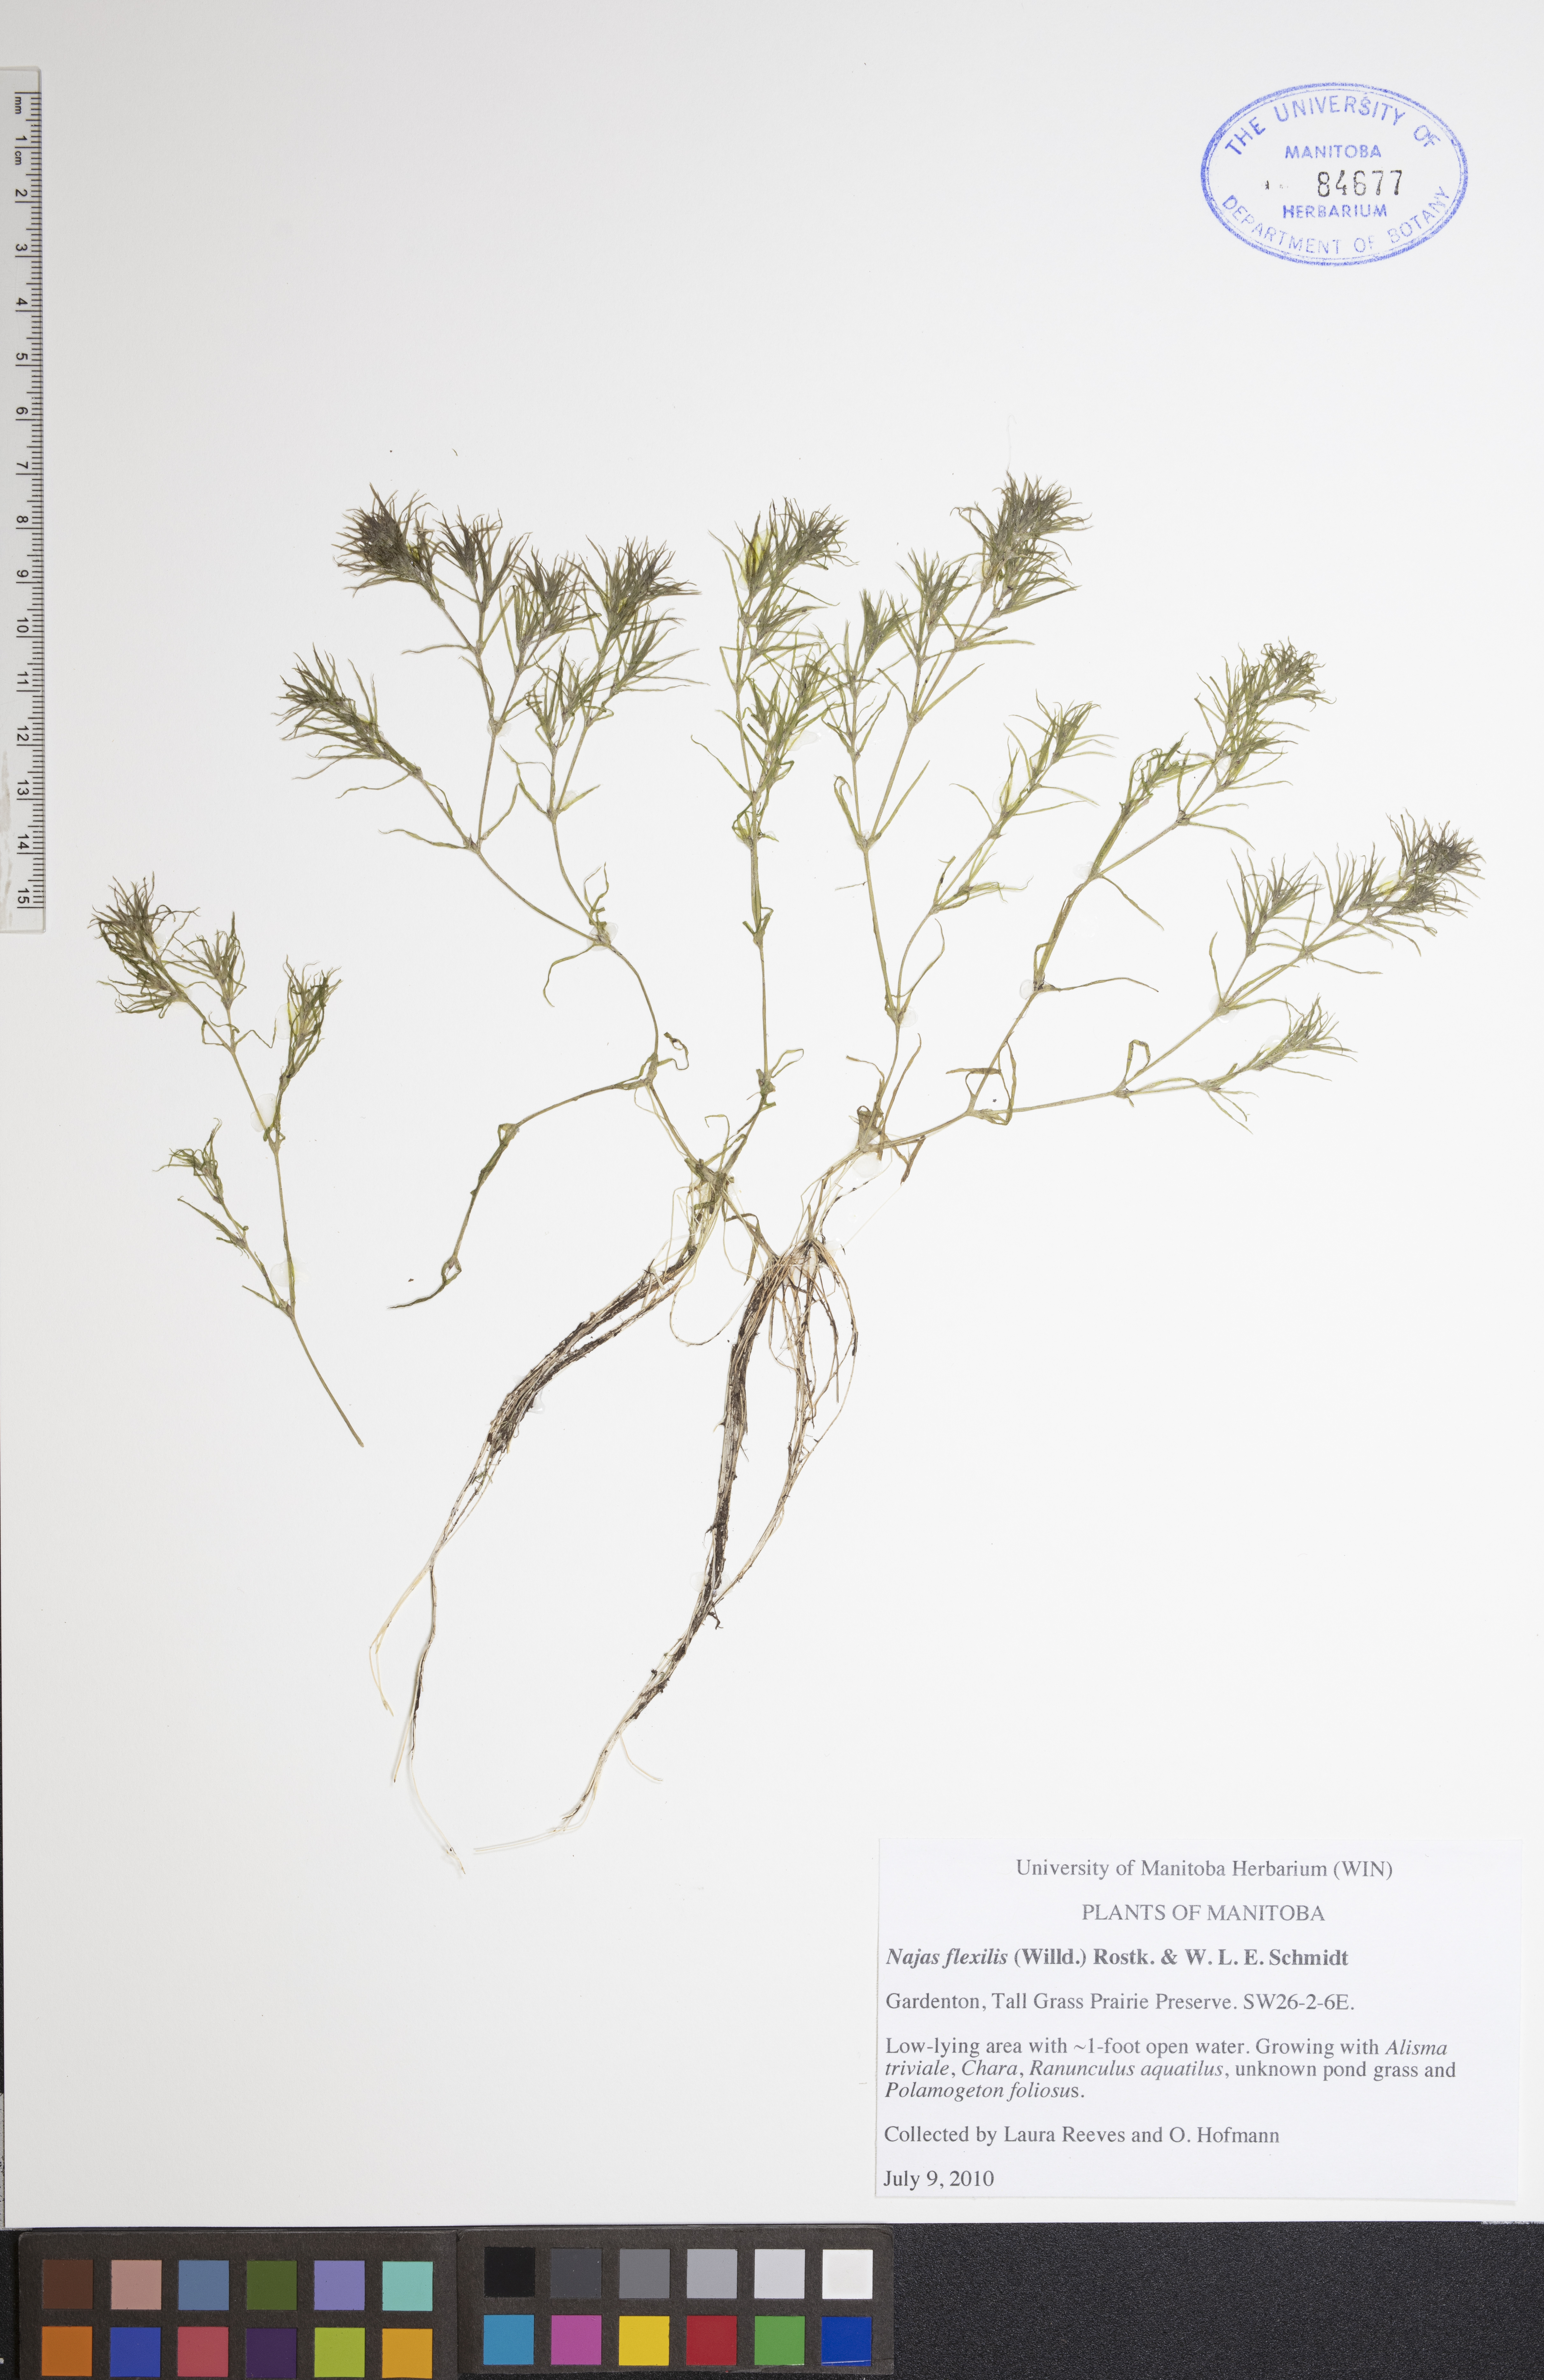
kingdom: Plantae
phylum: Tracheophyta
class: Liliopsida
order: Alismatales
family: Hydrocharitaceae
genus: Najas
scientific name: Najas flexilis
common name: Slender naiad
